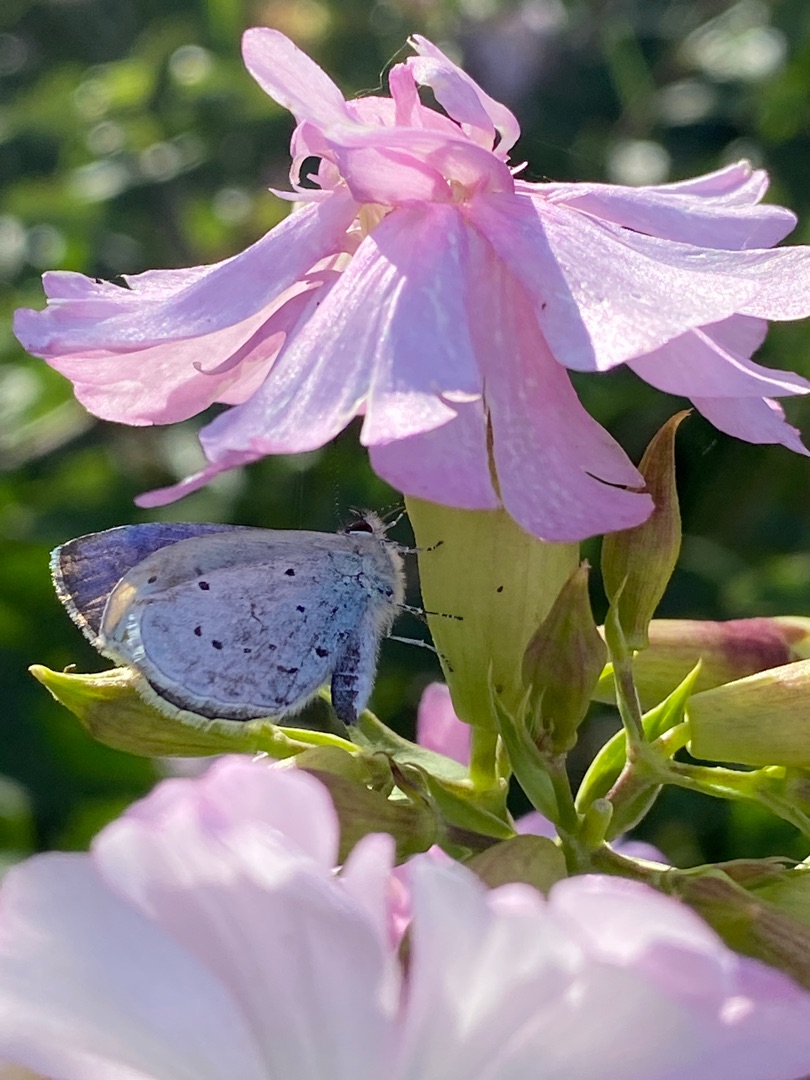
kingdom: Animalia
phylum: Arthropoda
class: Insecta
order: Lepidoptera
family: Lycaenidae
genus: Celastrina
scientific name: Celastrina argiolus
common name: Skovblåfugl
